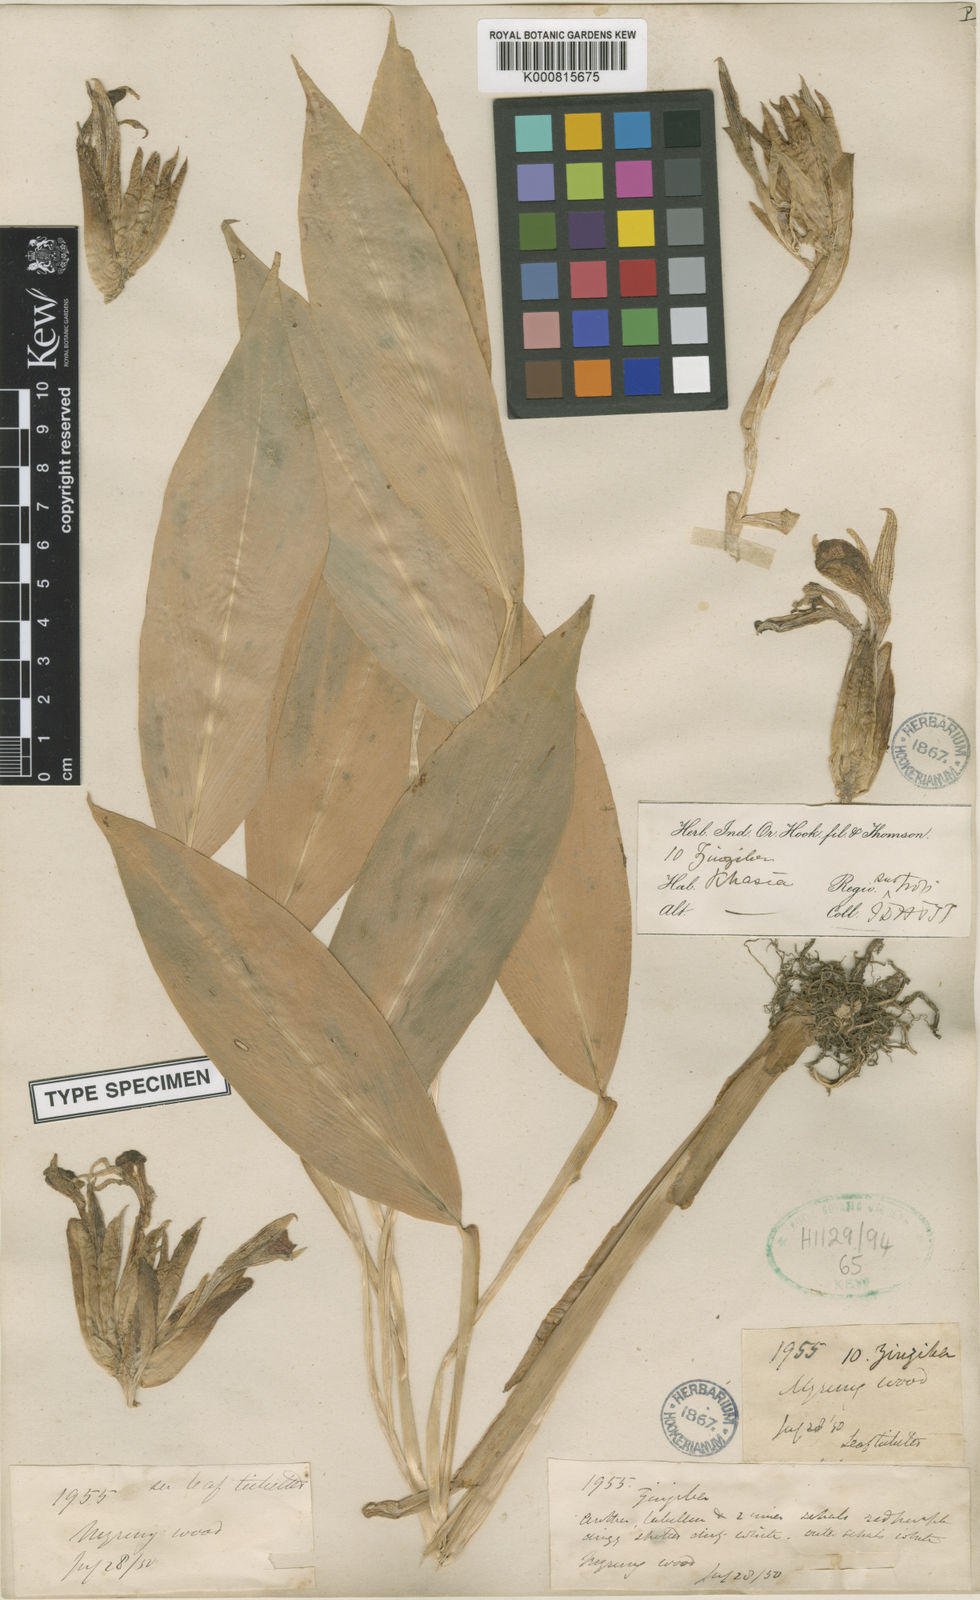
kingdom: Plantae
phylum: Tracheophyta
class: Liliopsida
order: Zingiberales
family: Zingiberaceae
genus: Zingiber
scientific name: Zingiber rubens
